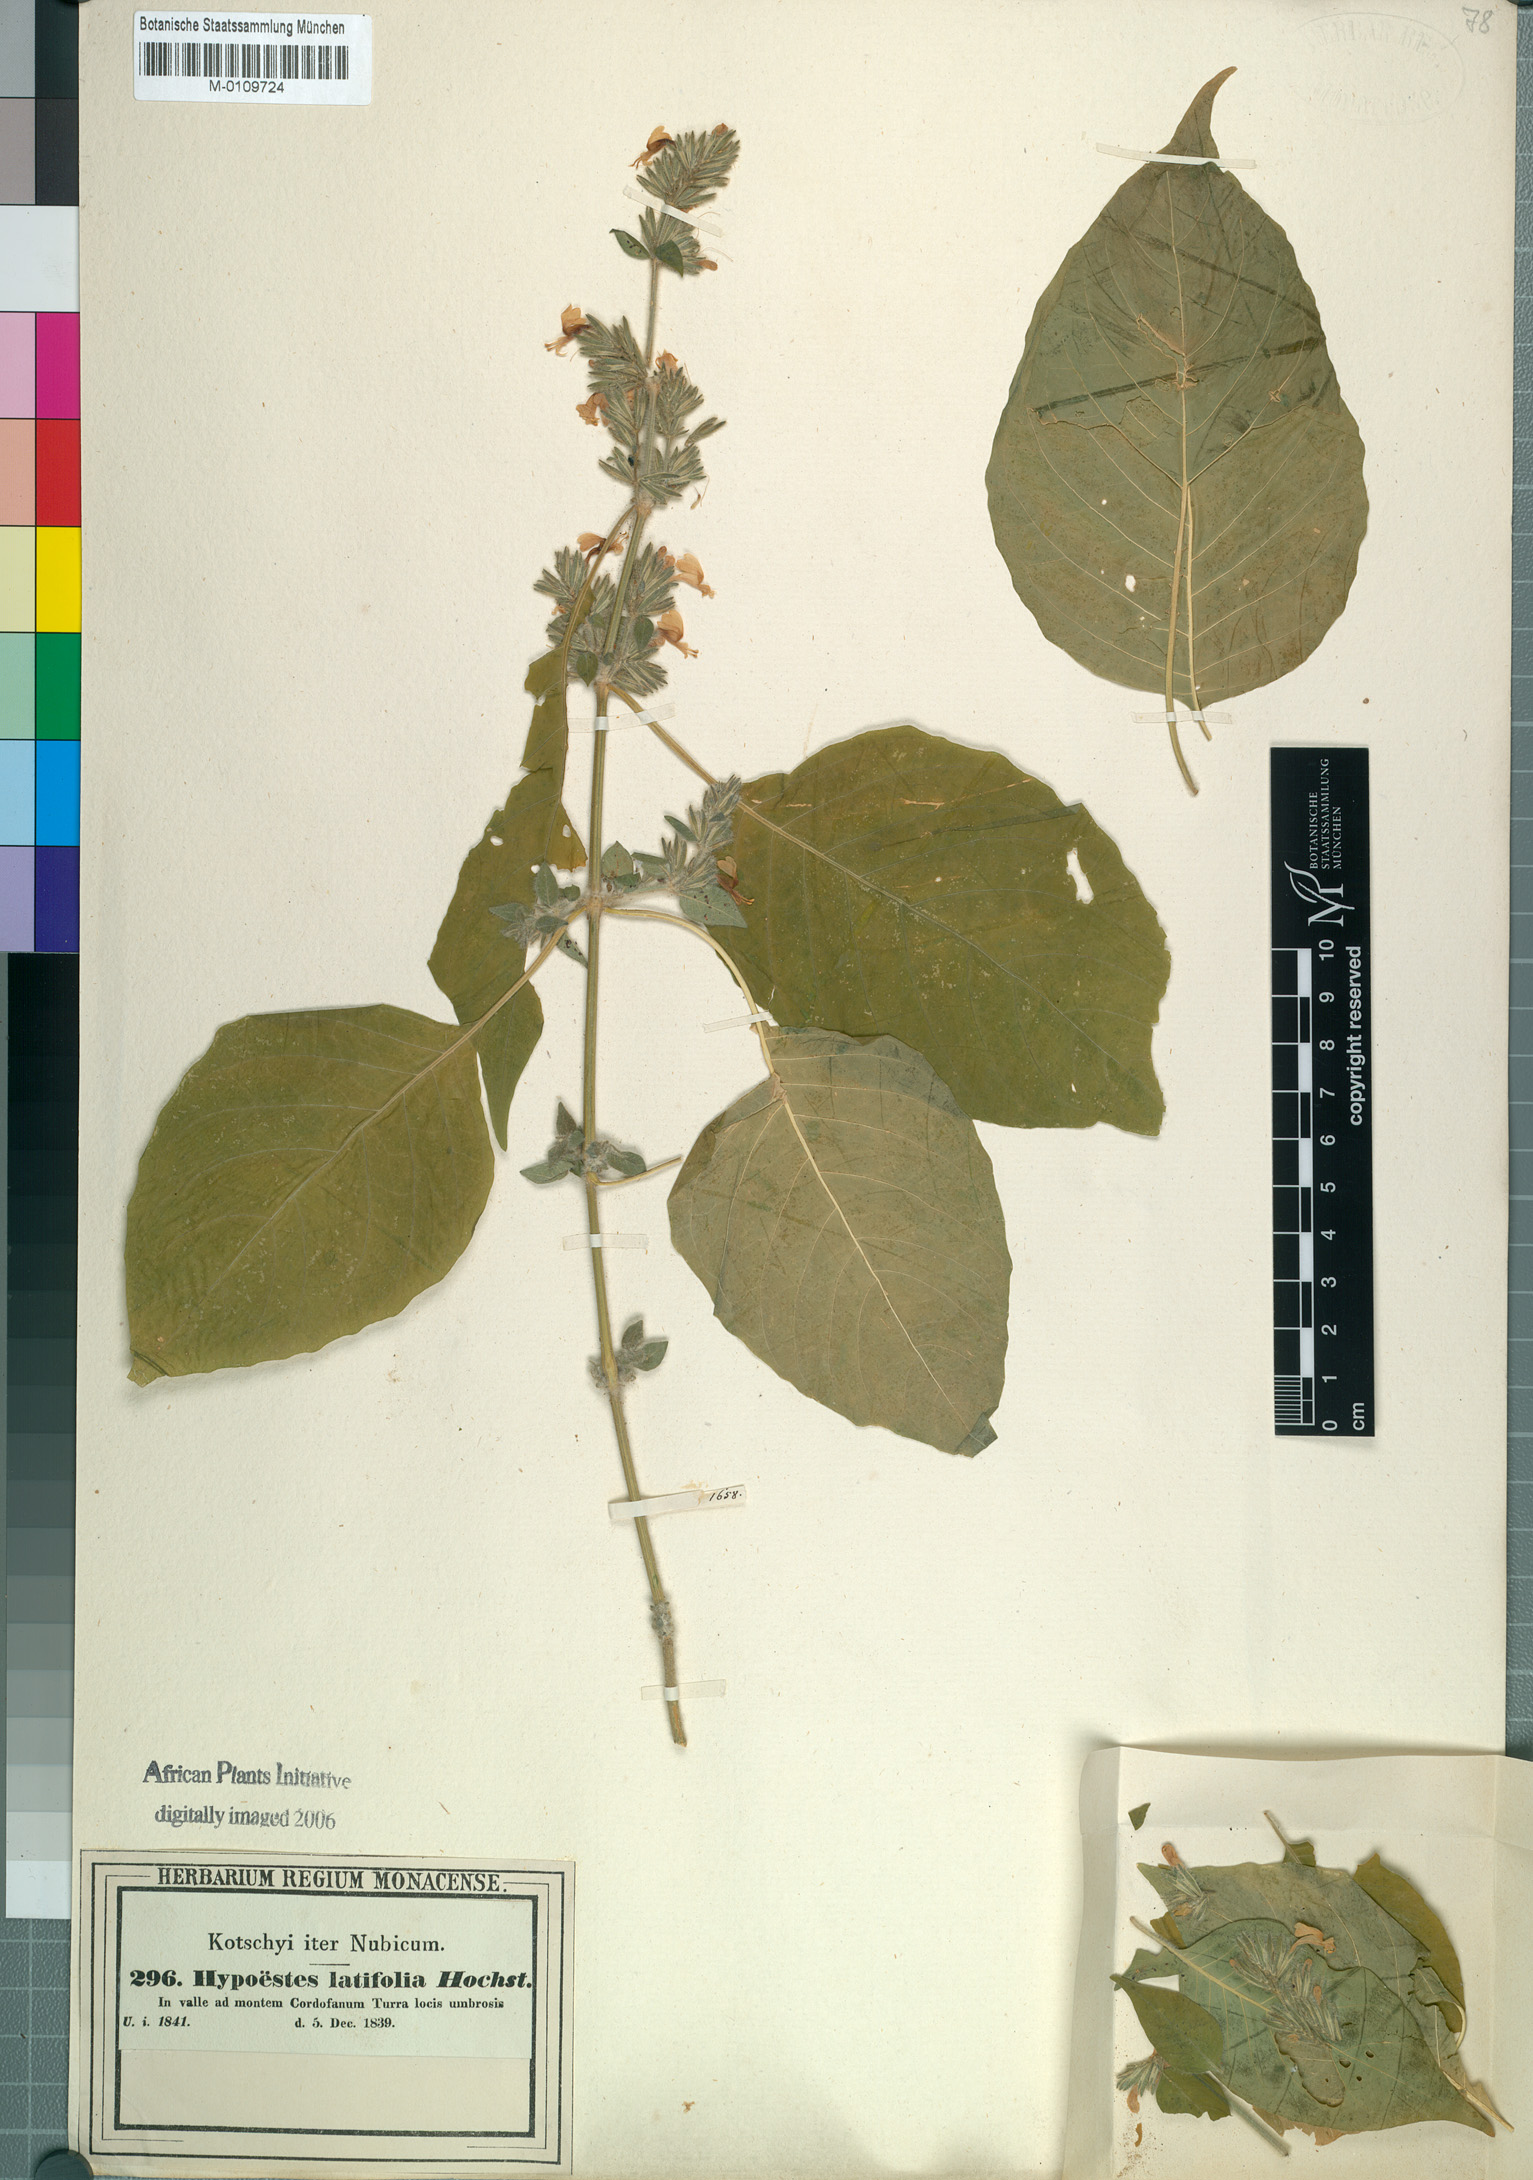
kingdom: Plantae
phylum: Tracheophyta
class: Magnoliopsida
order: Lamiales
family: Acanthaceae
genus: Hypoestes
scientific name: Hypoestes forskaolii
